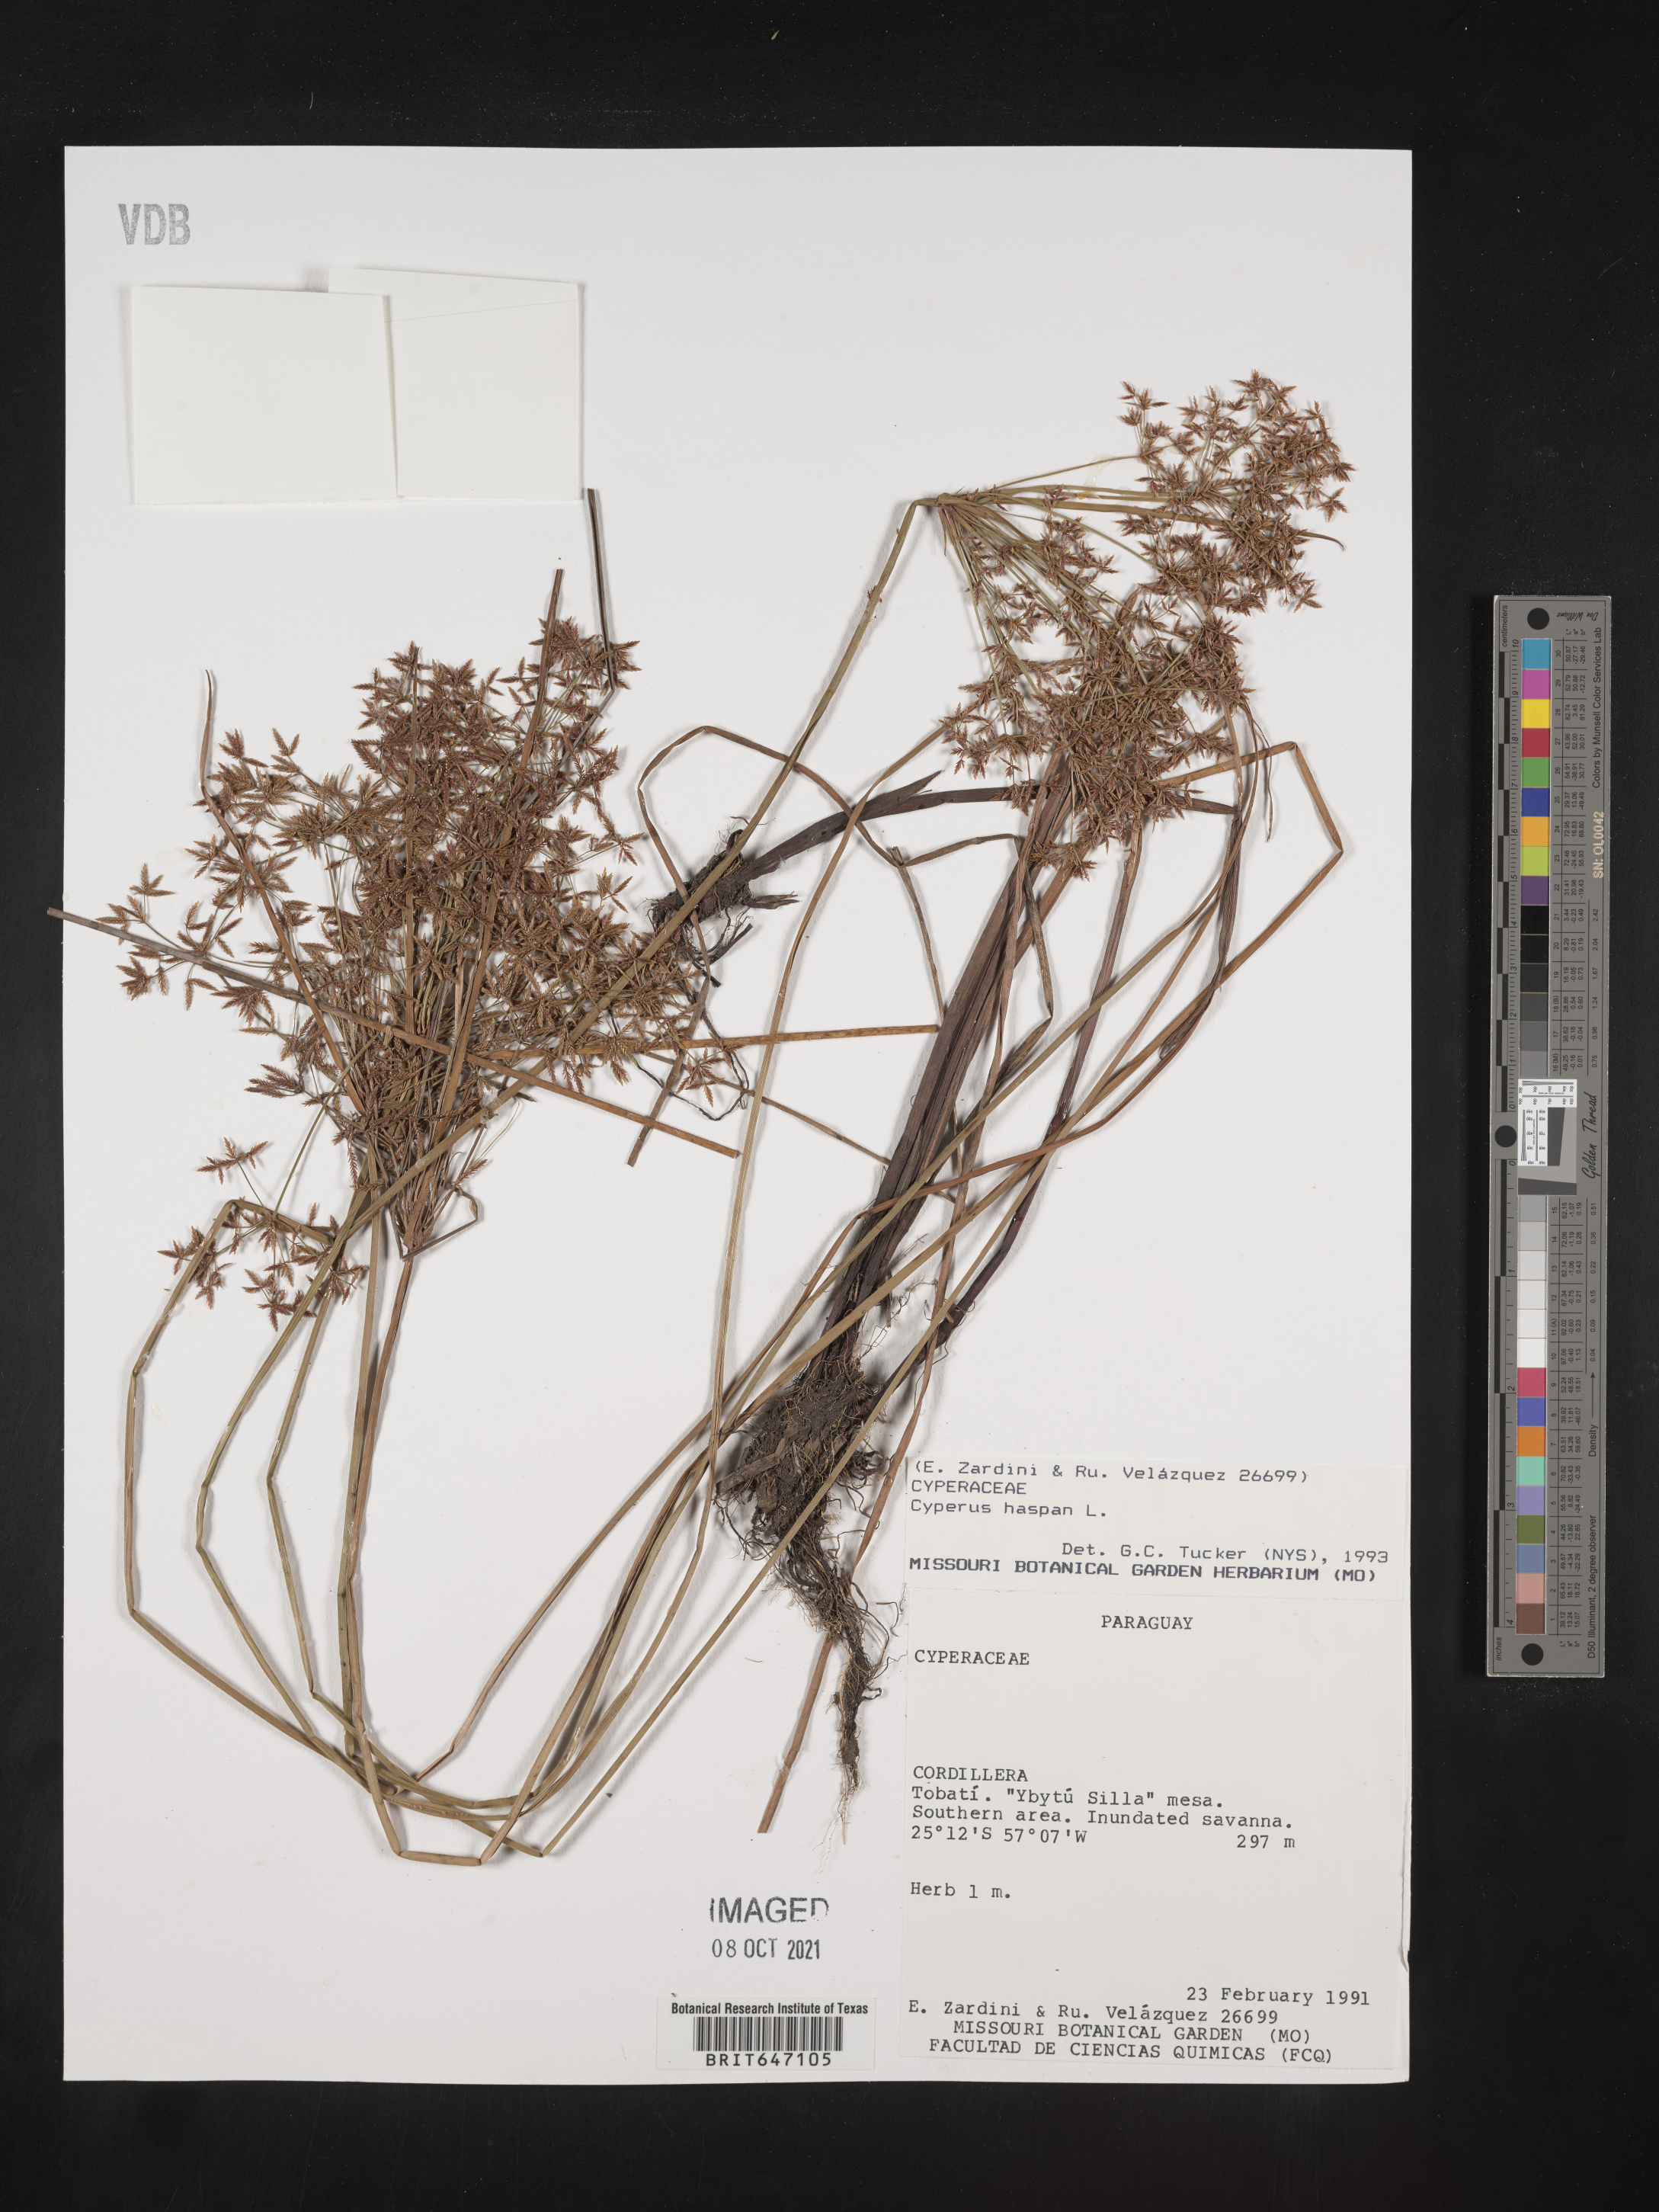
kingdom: Plantae
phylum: Tracheophyta
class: Liliopsida
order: Poales
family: Cyperaceae
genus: Cyperus
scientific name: Cyperus haspan
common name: Haspan flatsedge
